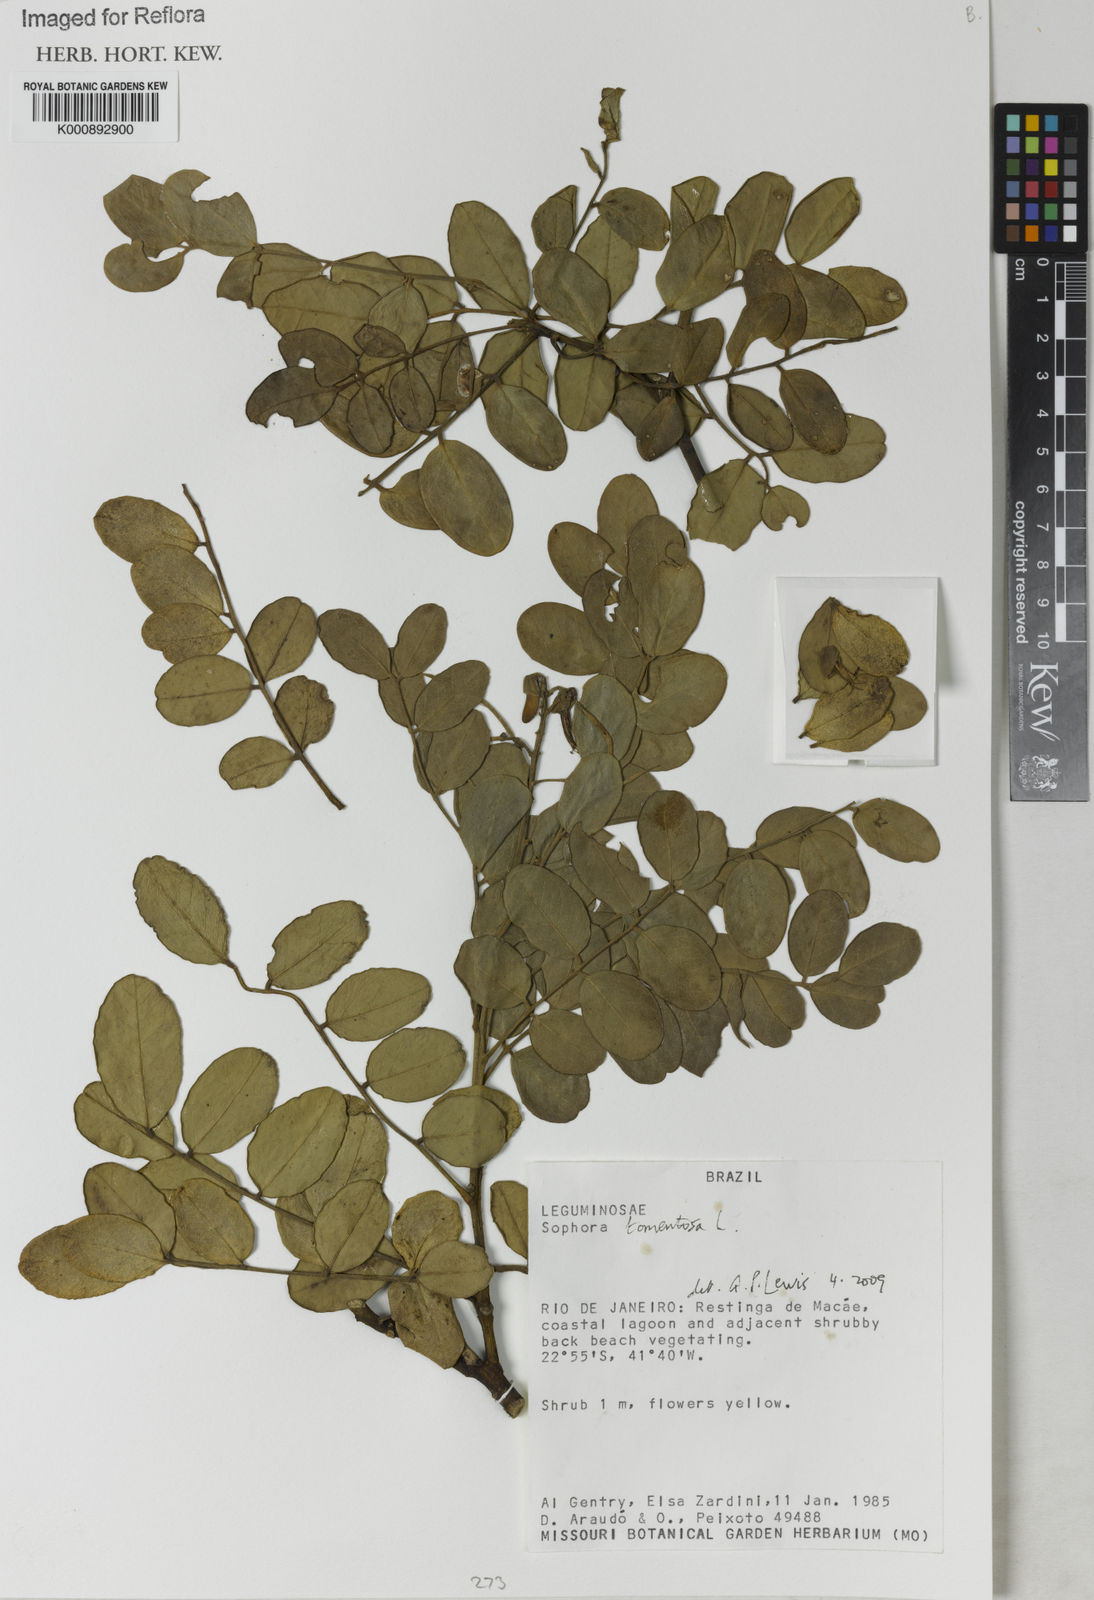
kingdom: Plantae
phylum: Tracheophyta
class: Magnoliopsida
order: Fabales
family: Fabaceae
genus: Sophora
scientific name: Sophora tomentosa
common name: Yellow necklacepod
